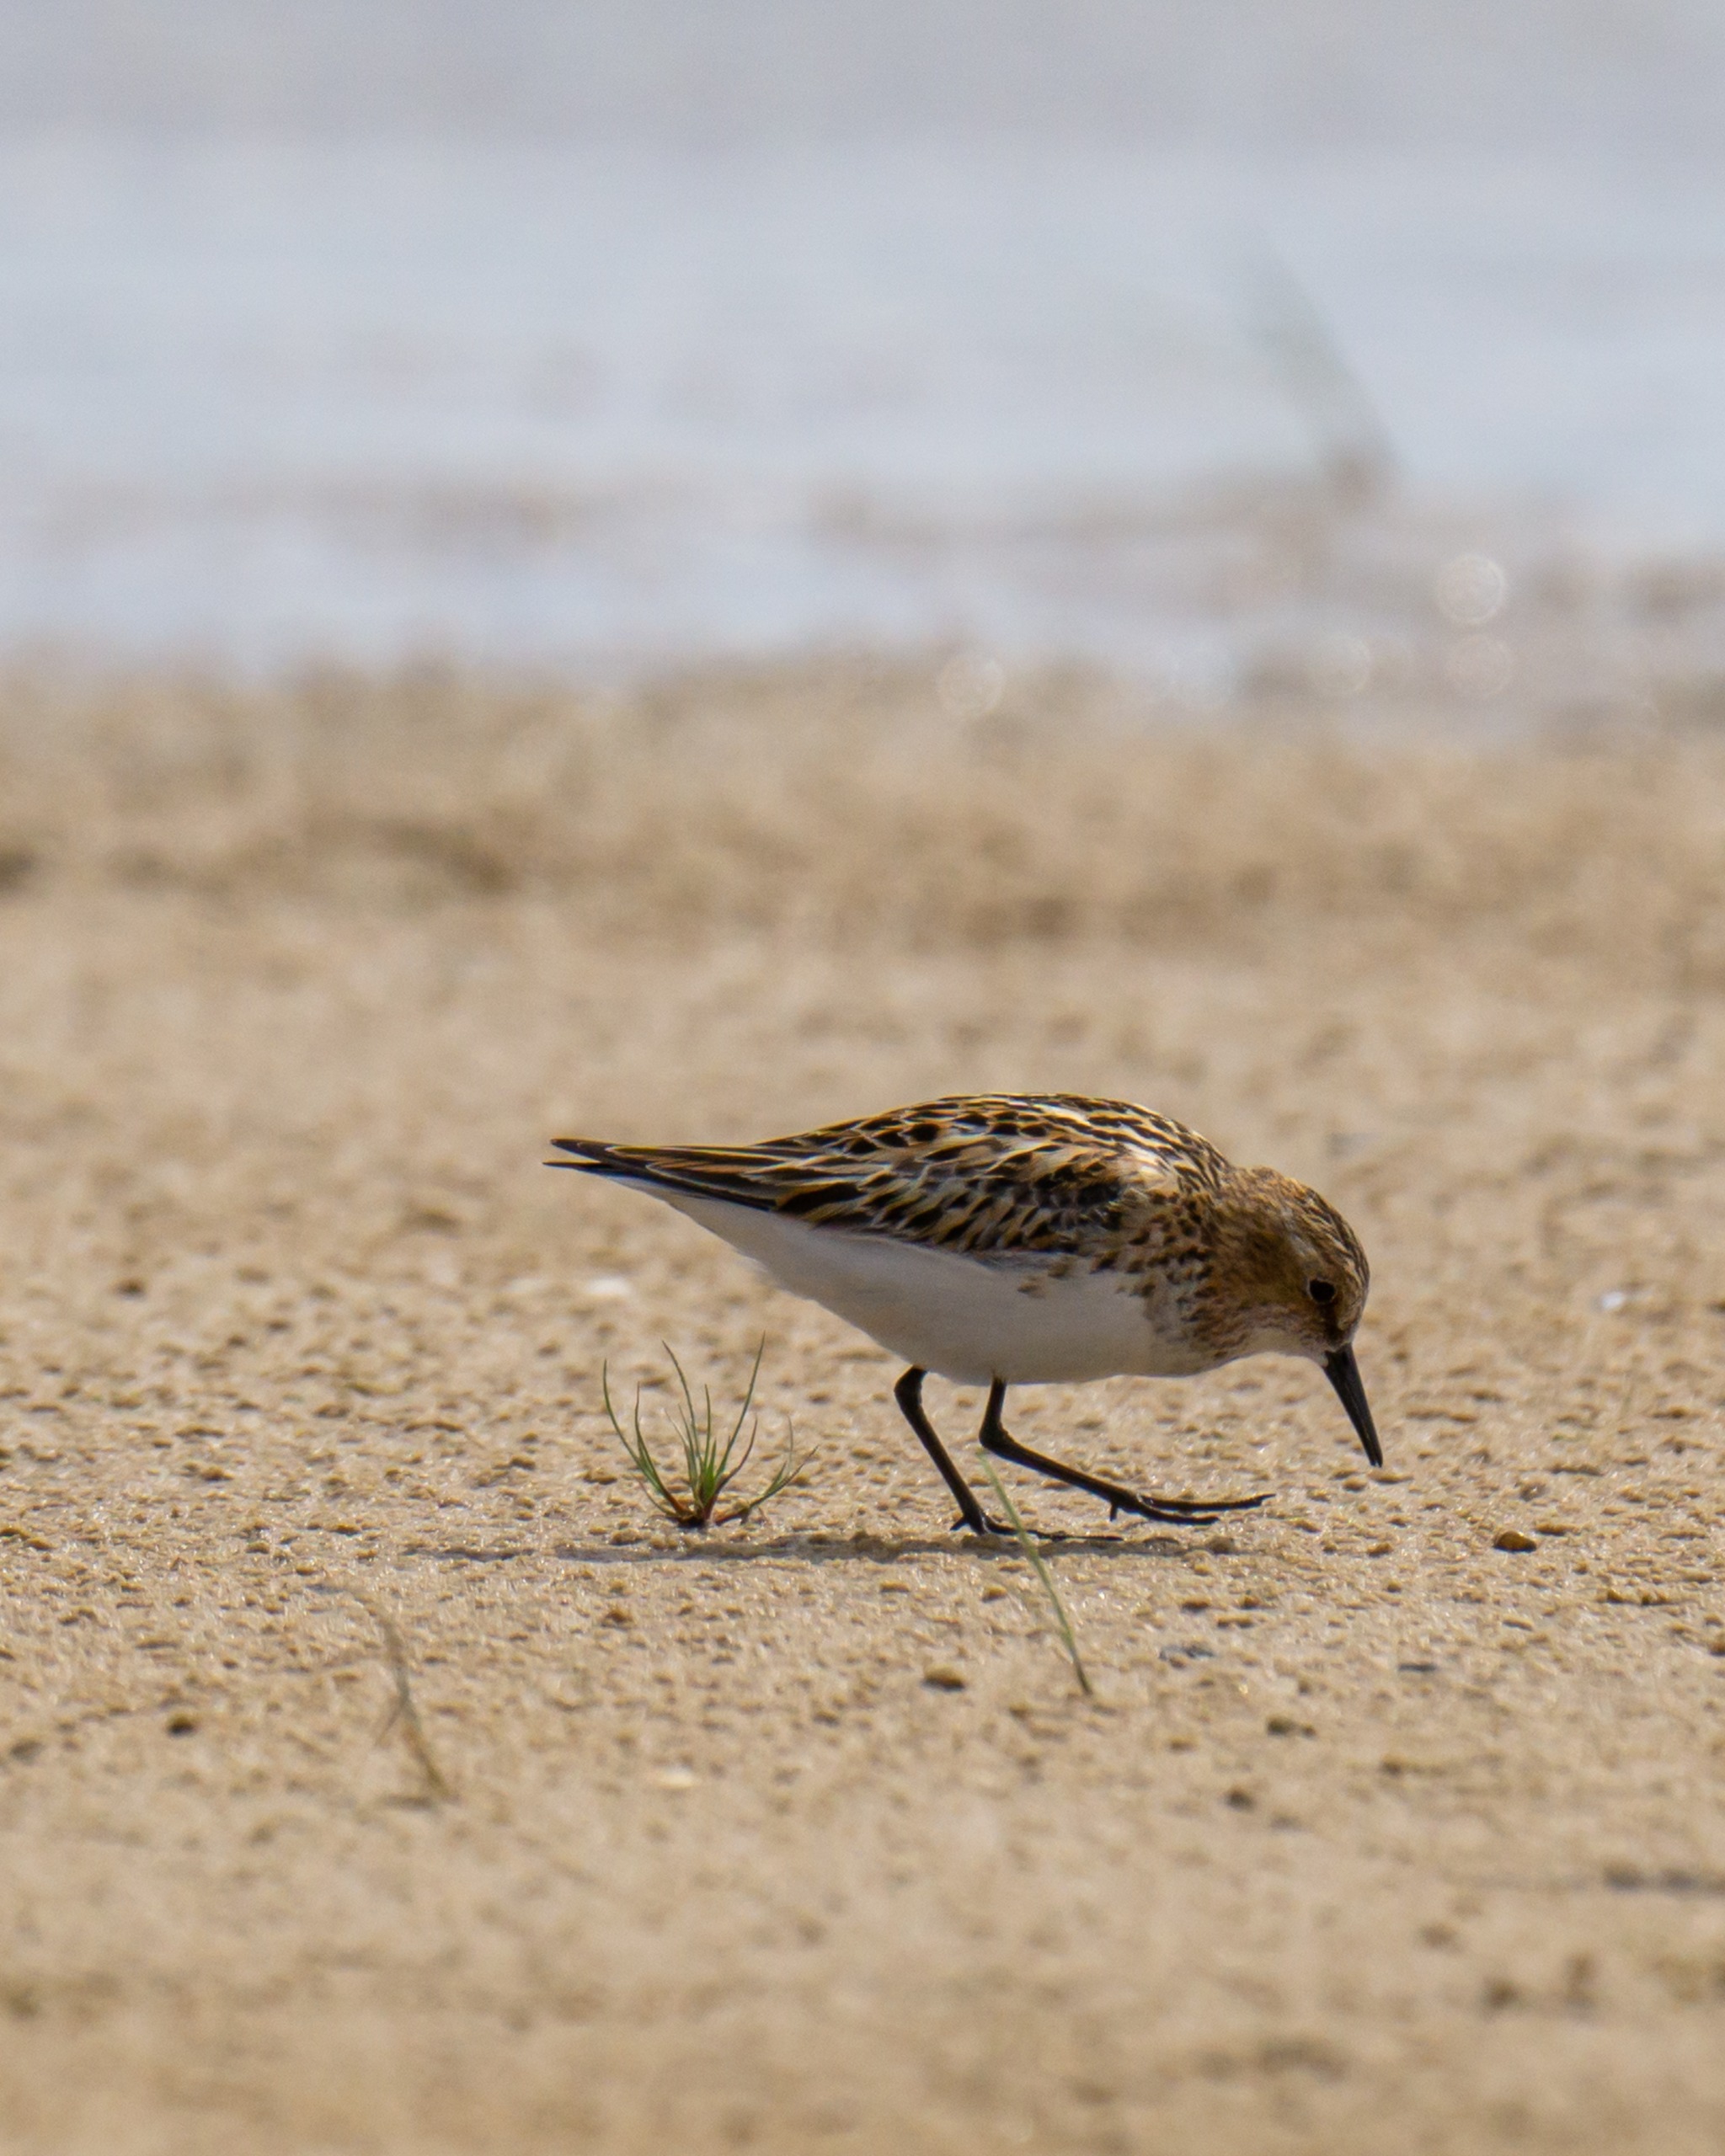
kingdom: Animalia
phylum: Chordata
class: Aves
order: Charadriiformes
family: Scolopacidae
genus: Calidris
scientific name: Calidris minuta
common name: Dværgryle
